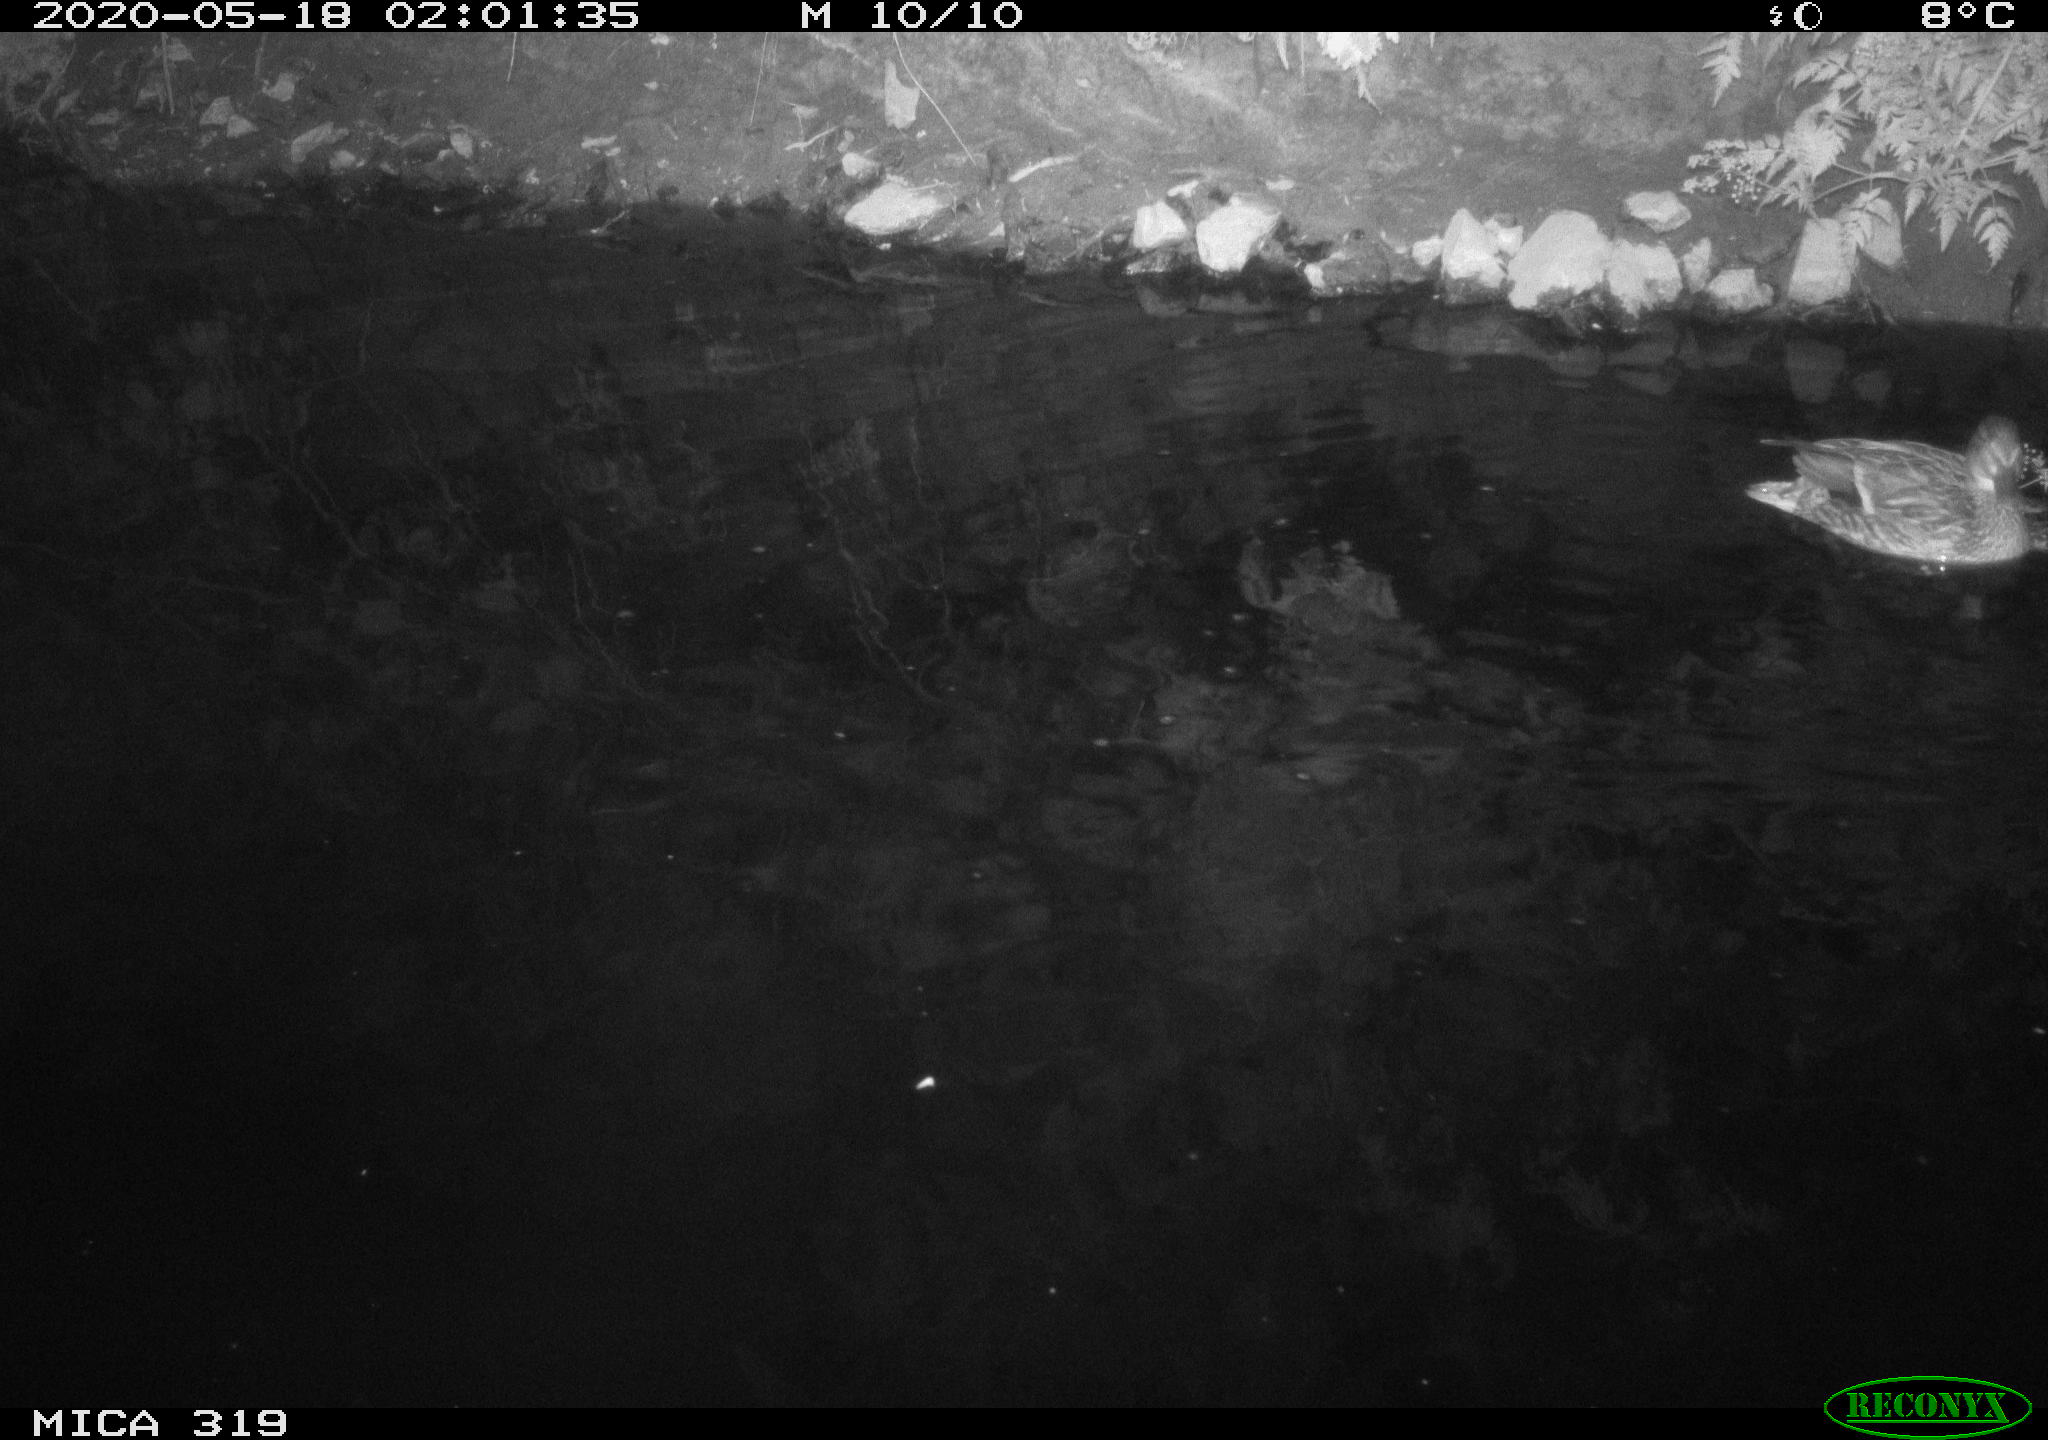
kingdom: Animalia
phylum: Chordata
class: Aves
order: Anseriformes
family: Anatidae
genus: Anas
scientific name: Anas platyrhynchos
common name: Mallard
